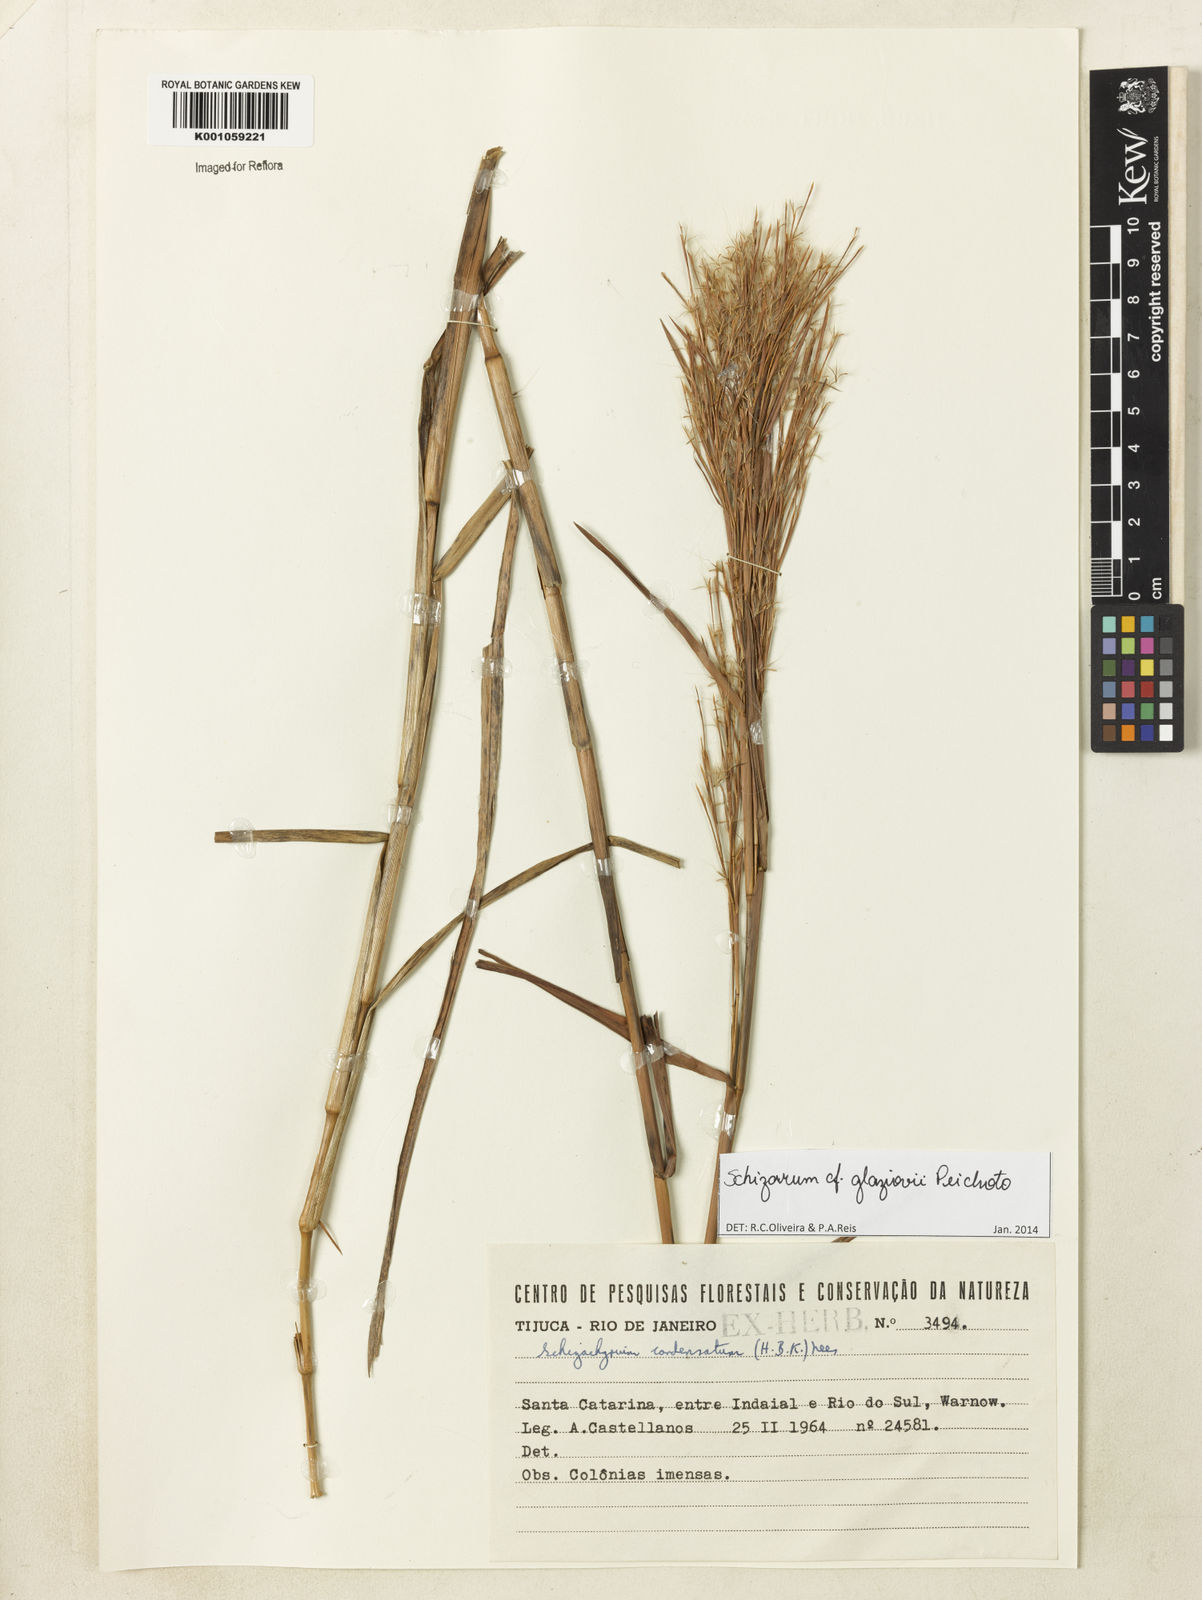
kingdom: Plantae
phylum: Tracheophyta
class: Liliopsida
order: Poales
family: Poaceae
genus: Schizachyrium
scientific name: Schizachyrium glaziovii
